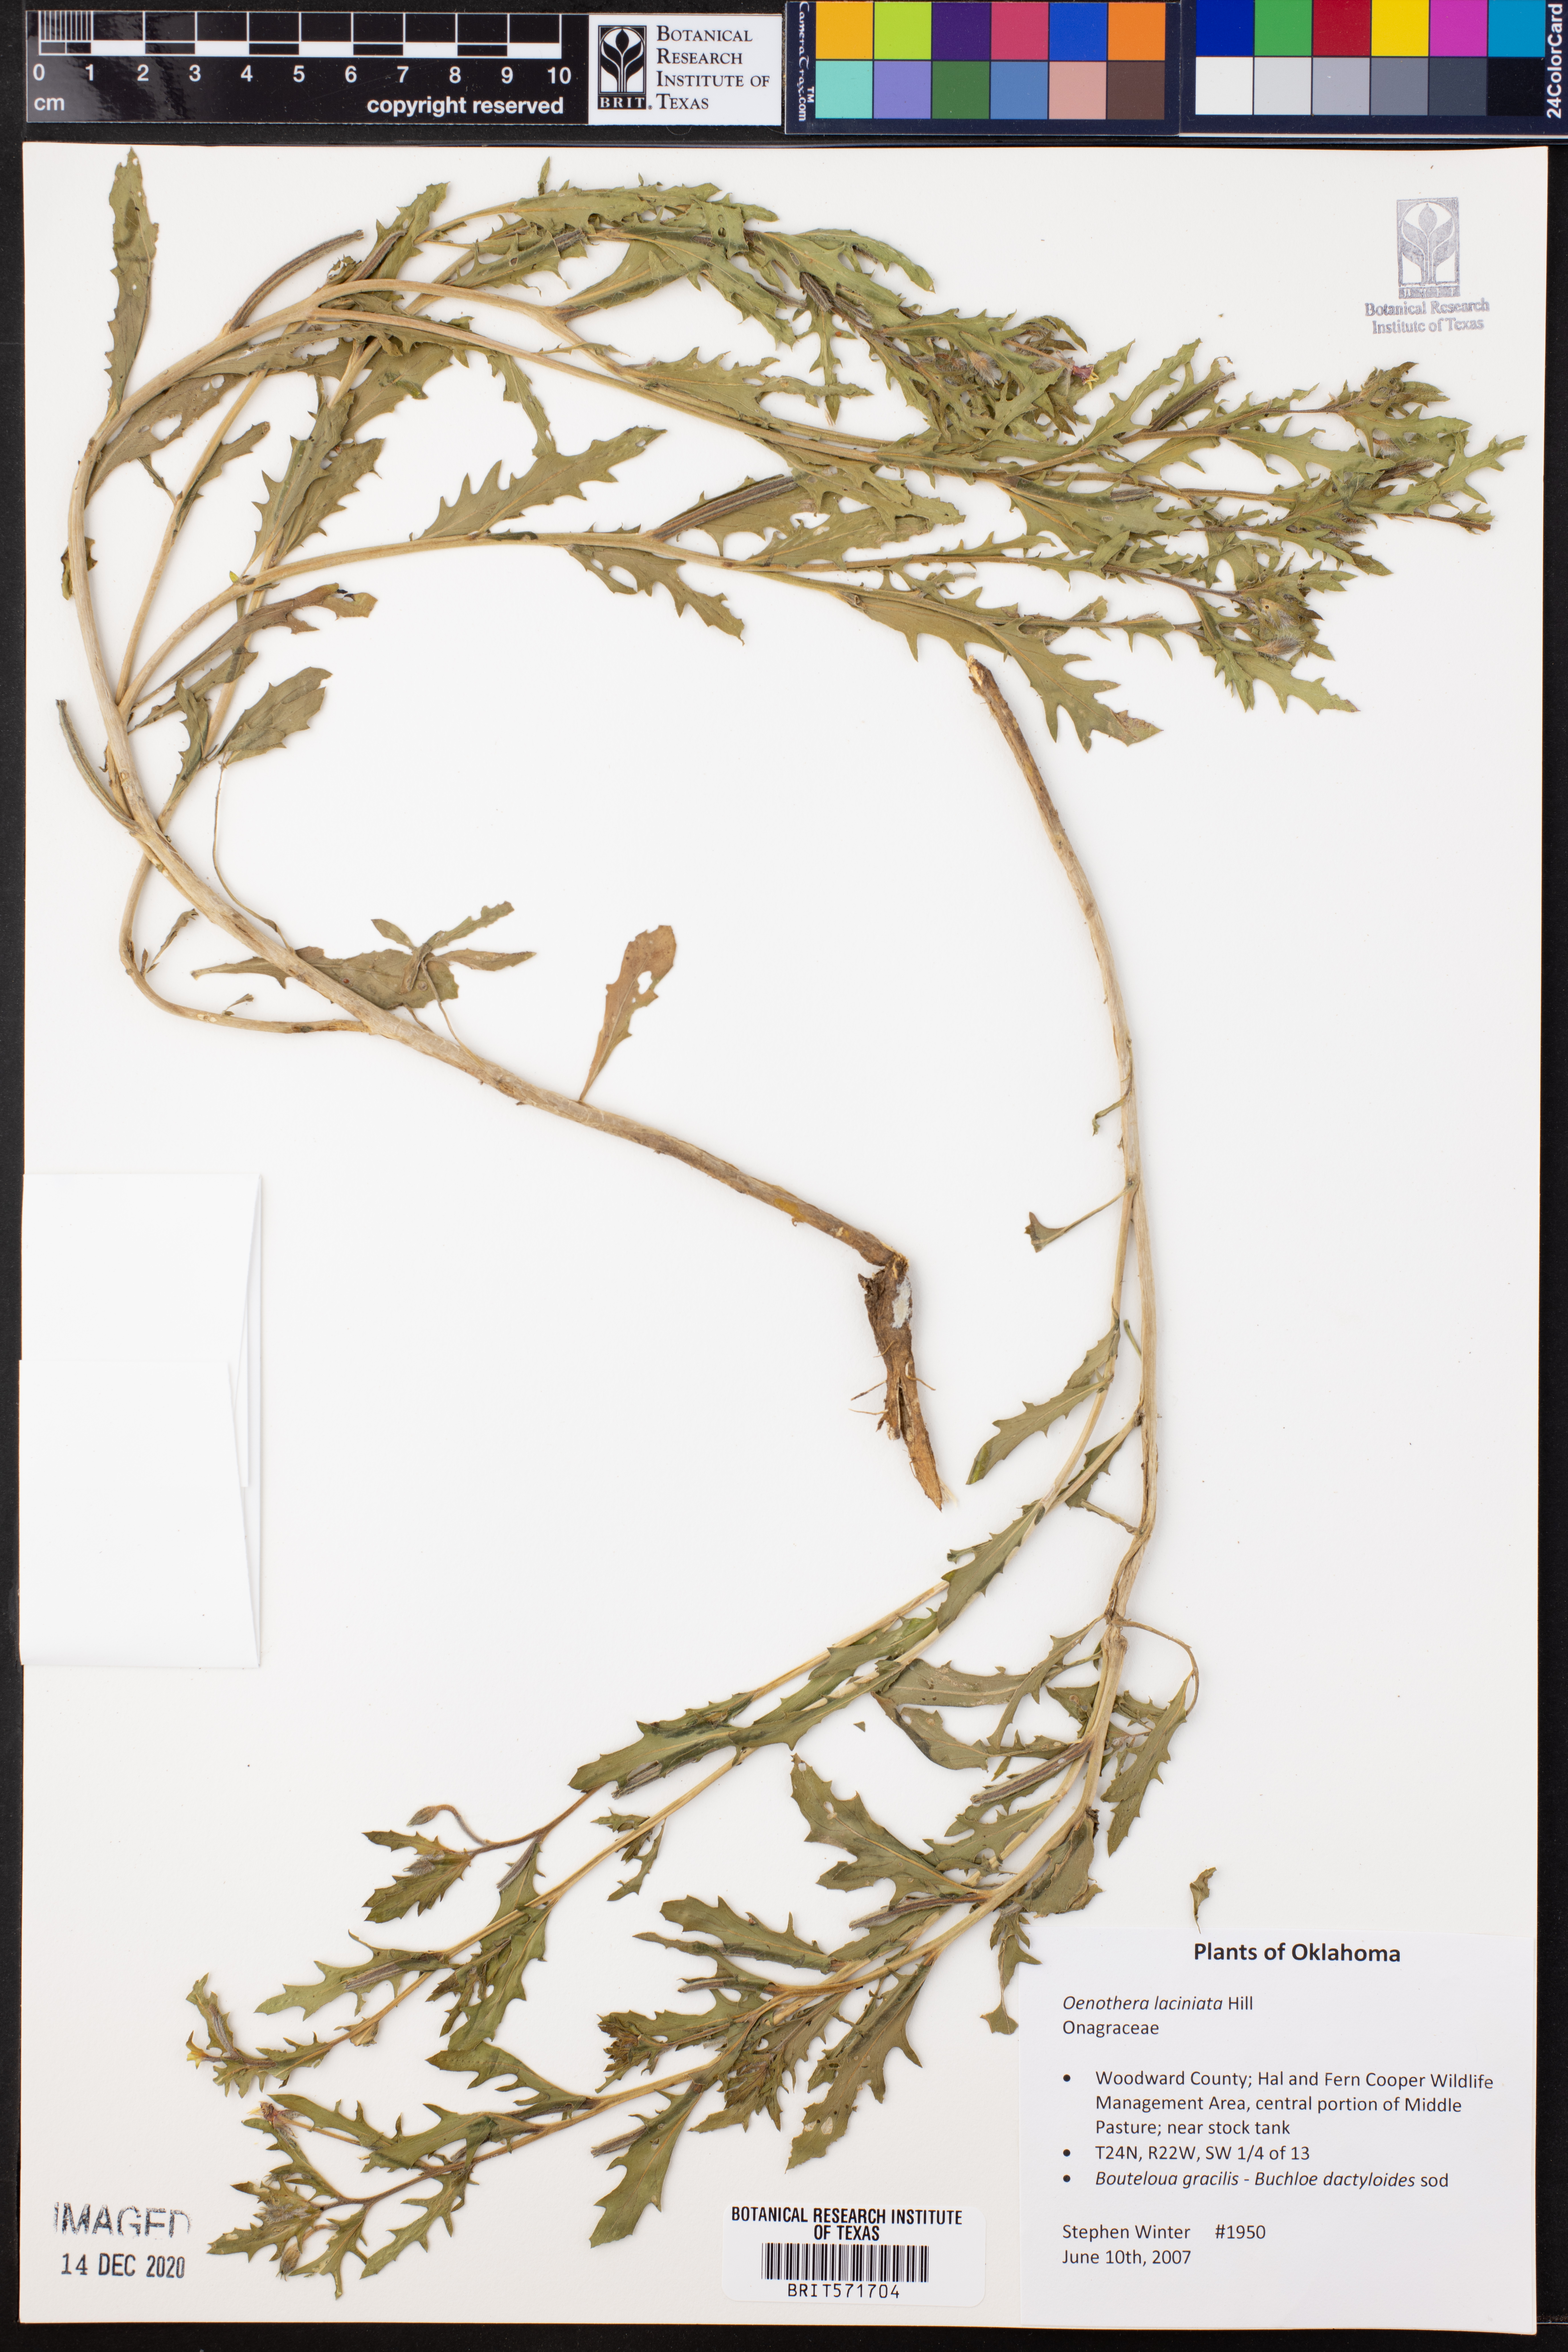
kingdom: Plantae
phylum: Tracheophyta
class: Magnoliopsida
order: Myrtales
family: Onagraceae
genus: Oenothera
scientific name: Oenothera laciniata
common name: Cut-leaved evening-primrose
